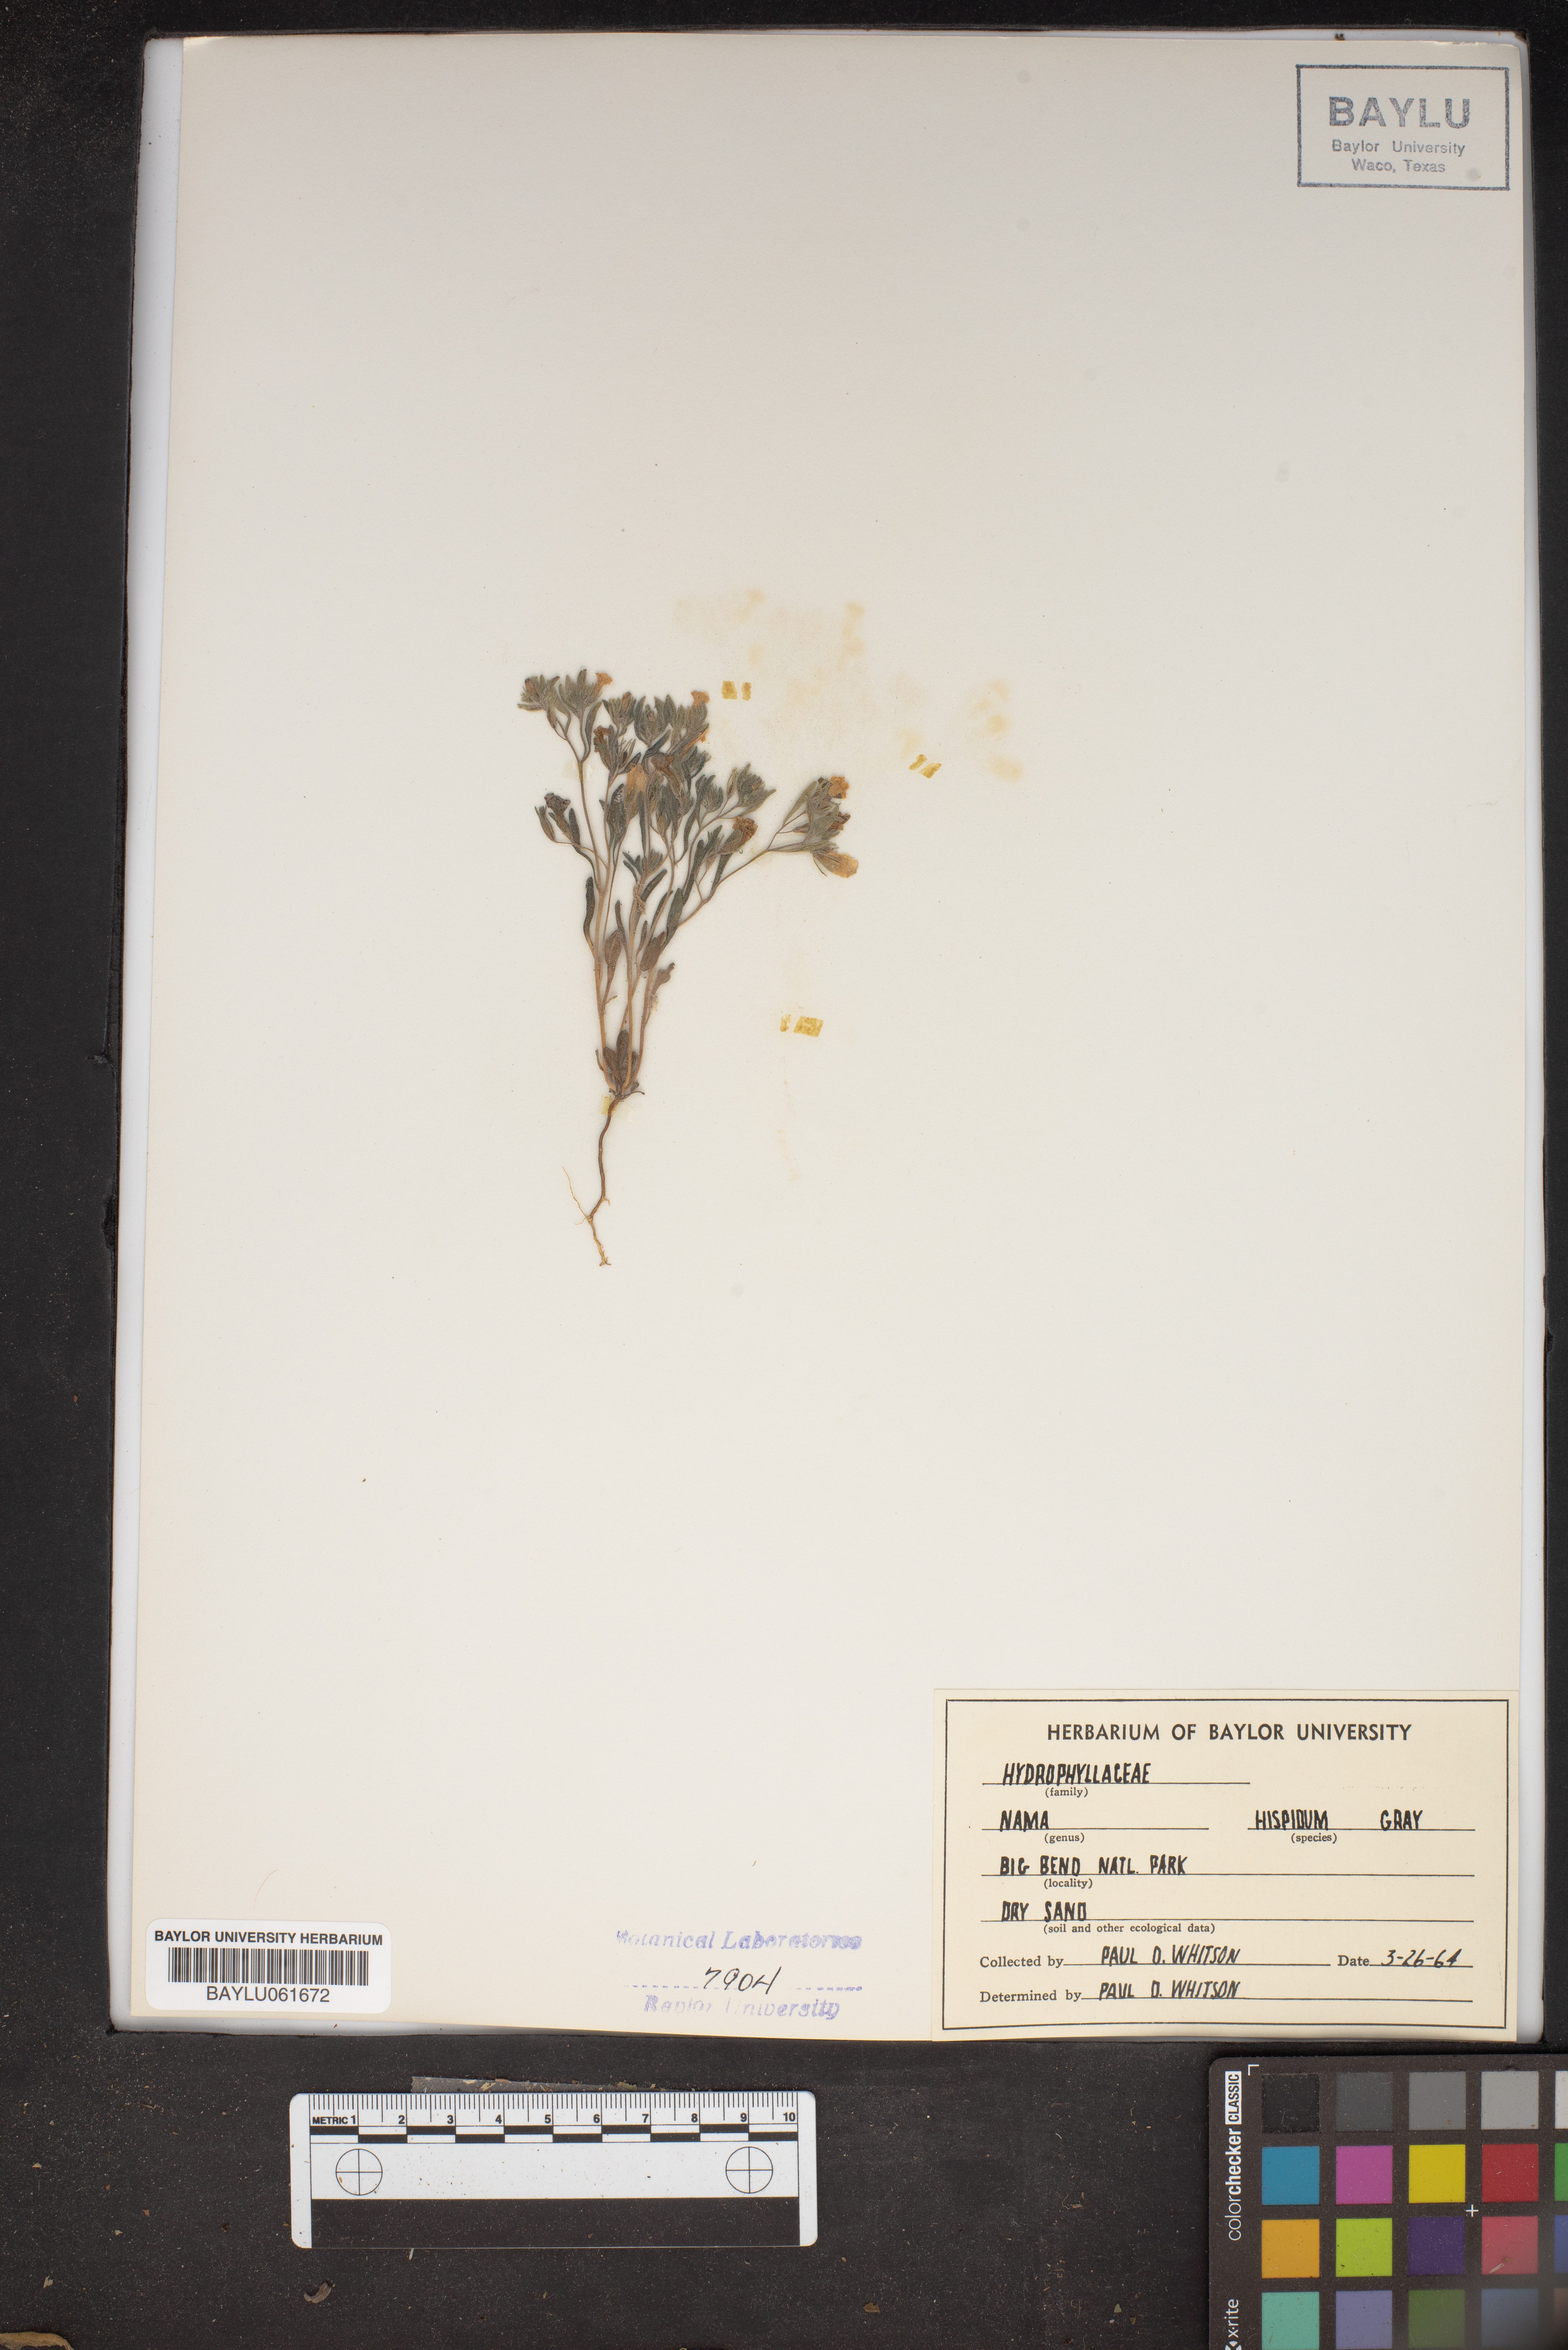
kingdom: Plantae
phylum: Tracheophyta
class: Magnoliopsida
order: Boraginales
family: Namaceae
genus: Nama
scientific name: Nama hispida
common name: Bristly nama
